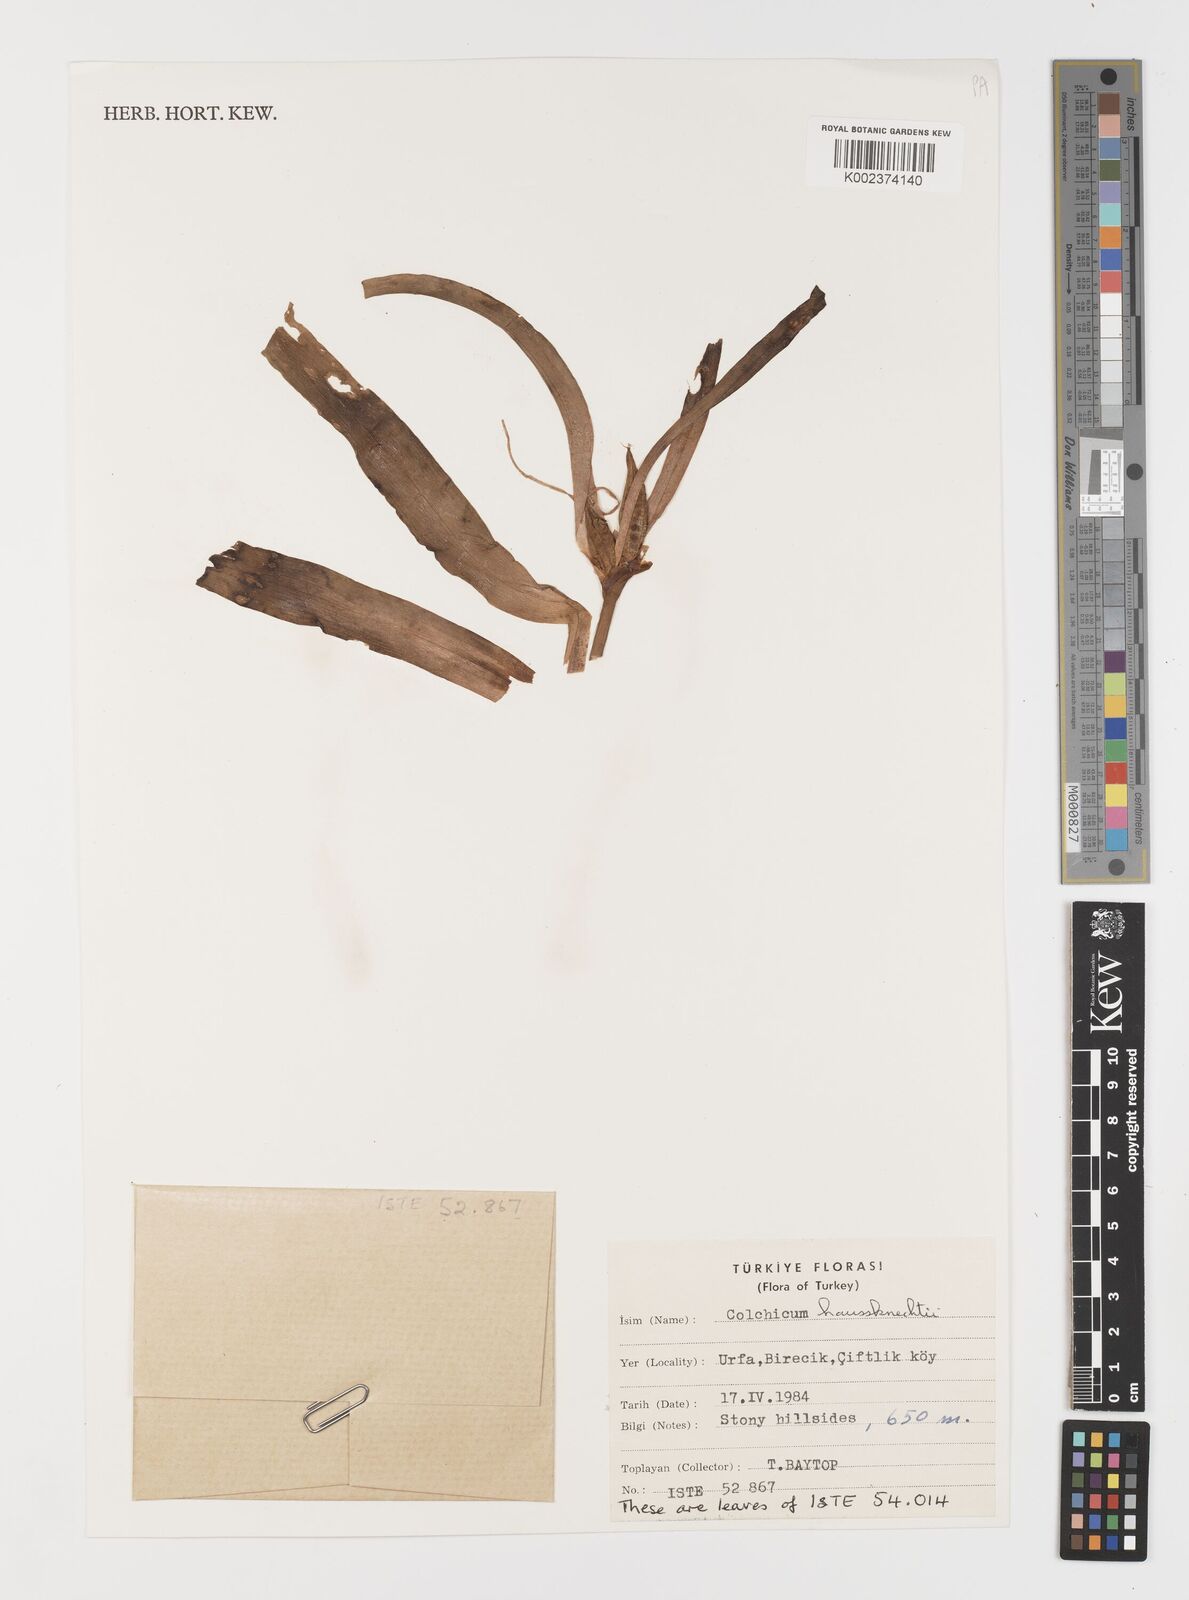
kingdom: Plantae
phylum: Tracheophyta
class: Liliopsida
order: Liliales
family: Colchicaceae
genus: Colchicum
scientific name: Colchicum persicum
